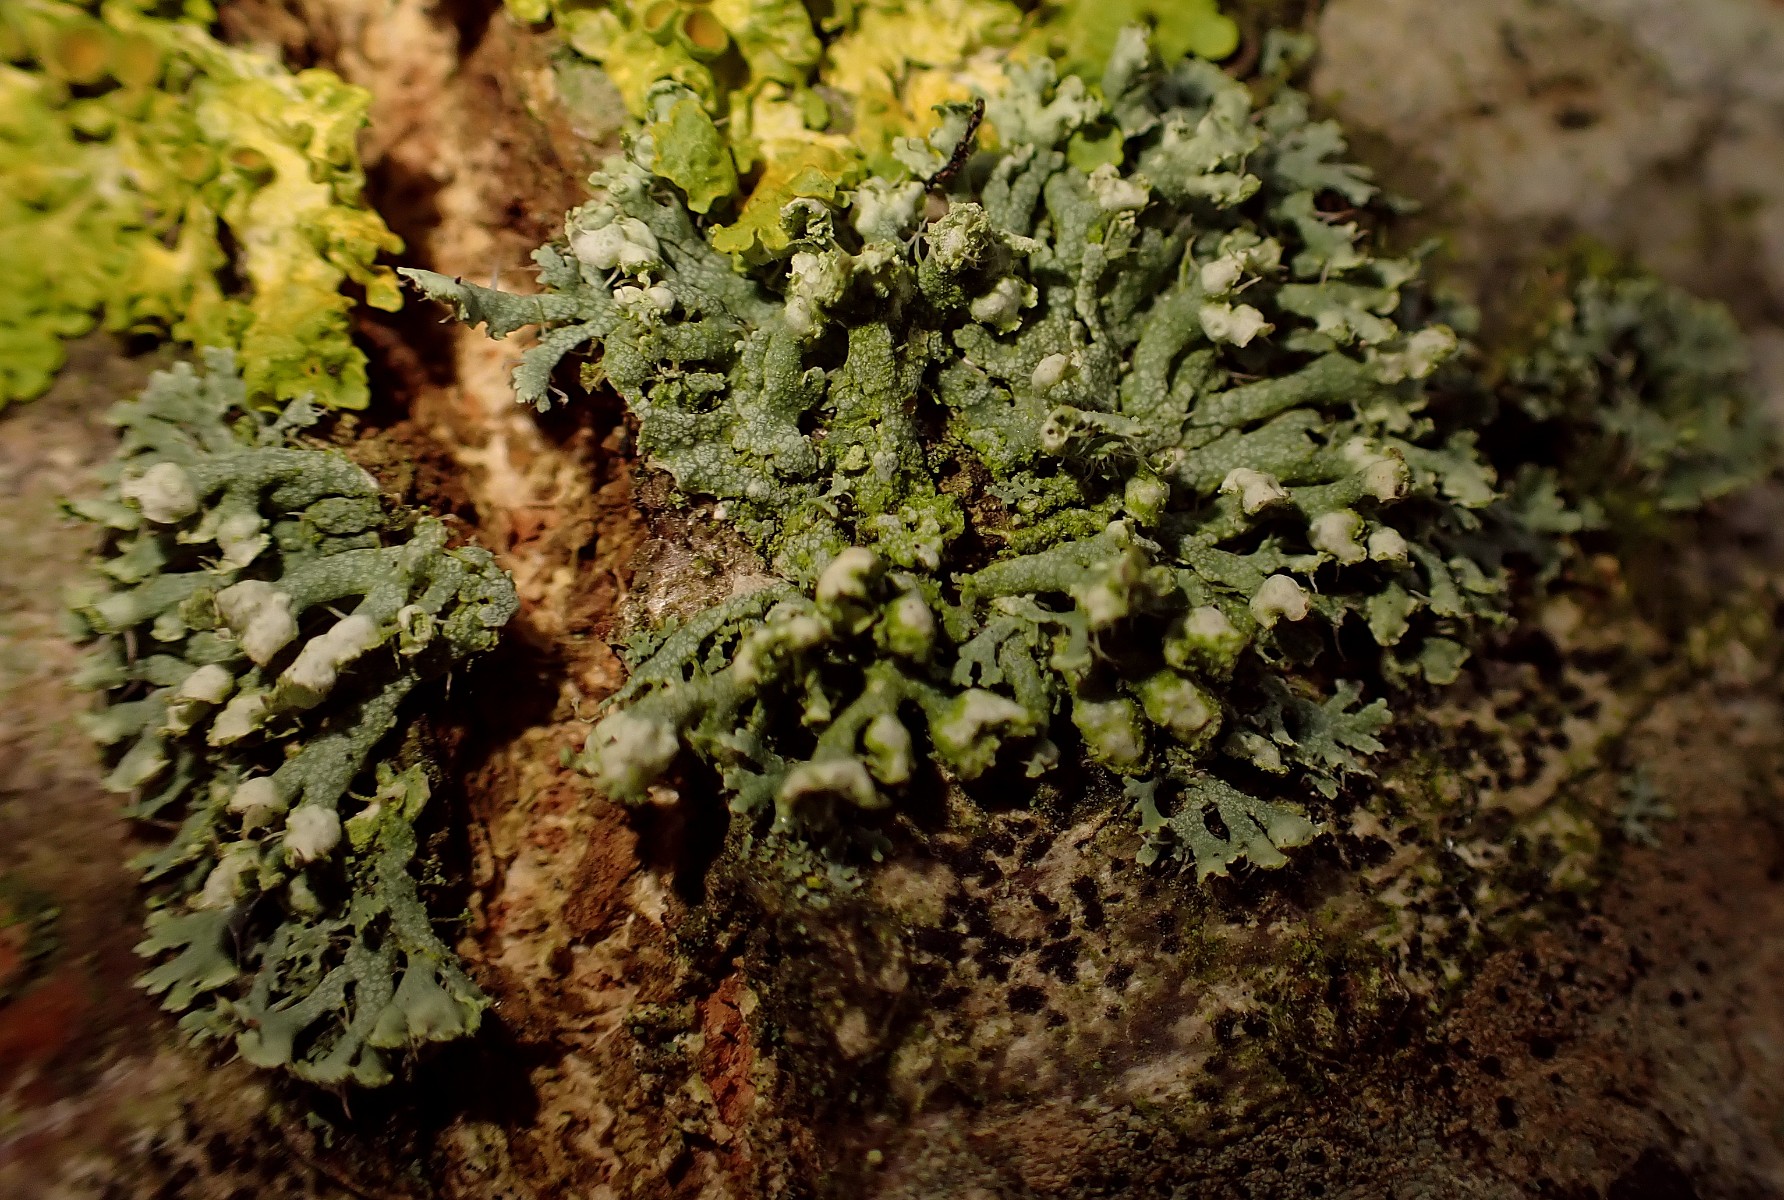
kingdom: Fungi
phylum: Ascomycota
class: Lecanoromycetes
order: Caliciales
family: Physciaceae
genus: Physcia
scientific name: Physcia adscendens
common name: hætte-rosetlav
